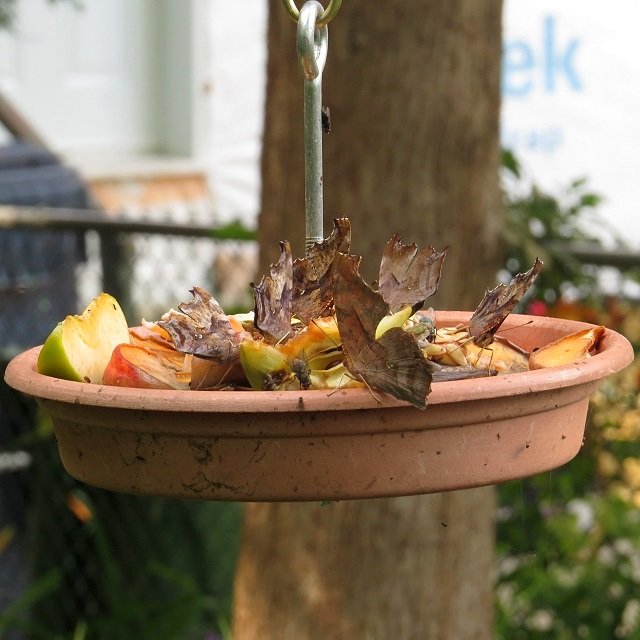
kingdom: Animalia
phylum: Arthropoda
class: Insecta
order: Lepidoptera
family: Nymphalidae
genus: Polygonia
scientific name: Polygonia interrogationis
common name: Question Mark
